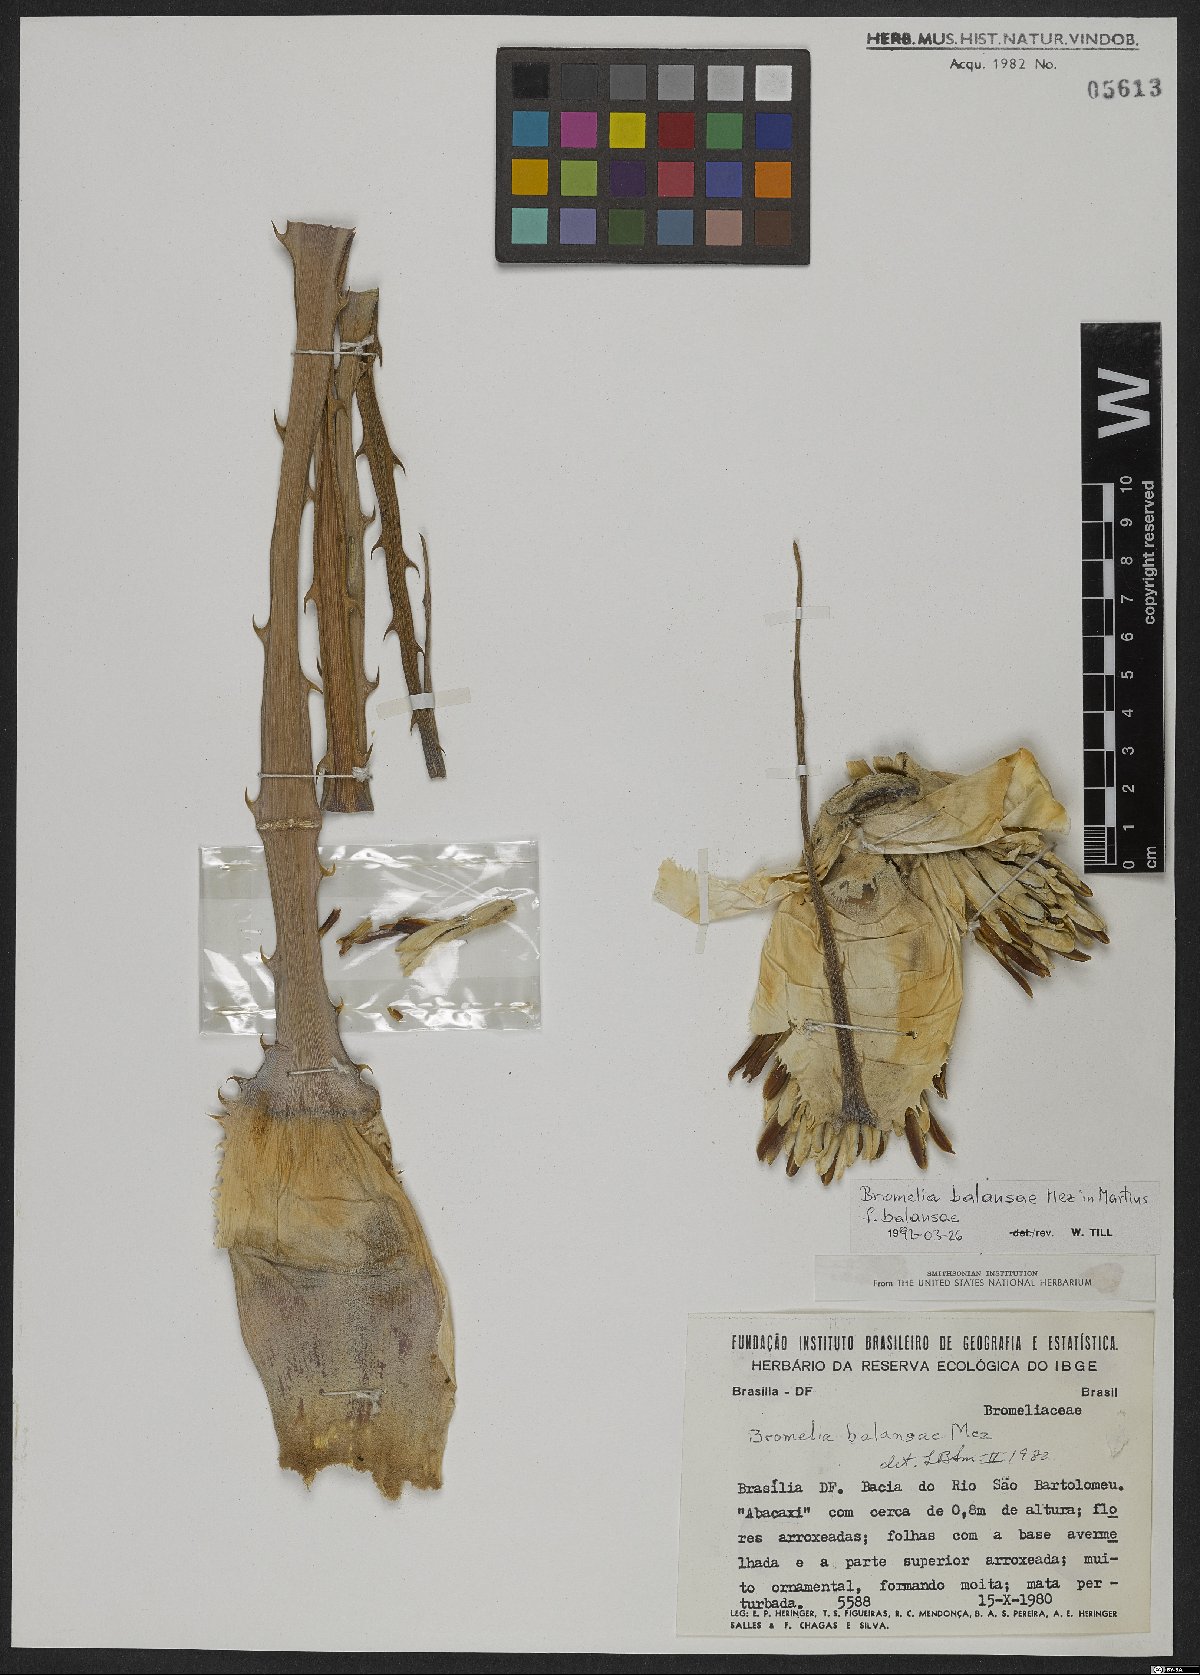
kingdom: Plantae
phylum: Tracheophyta
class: Liliopsida
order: Poales
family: Bromeliaceae
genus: Bromelia
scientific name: Bromelia balansae
